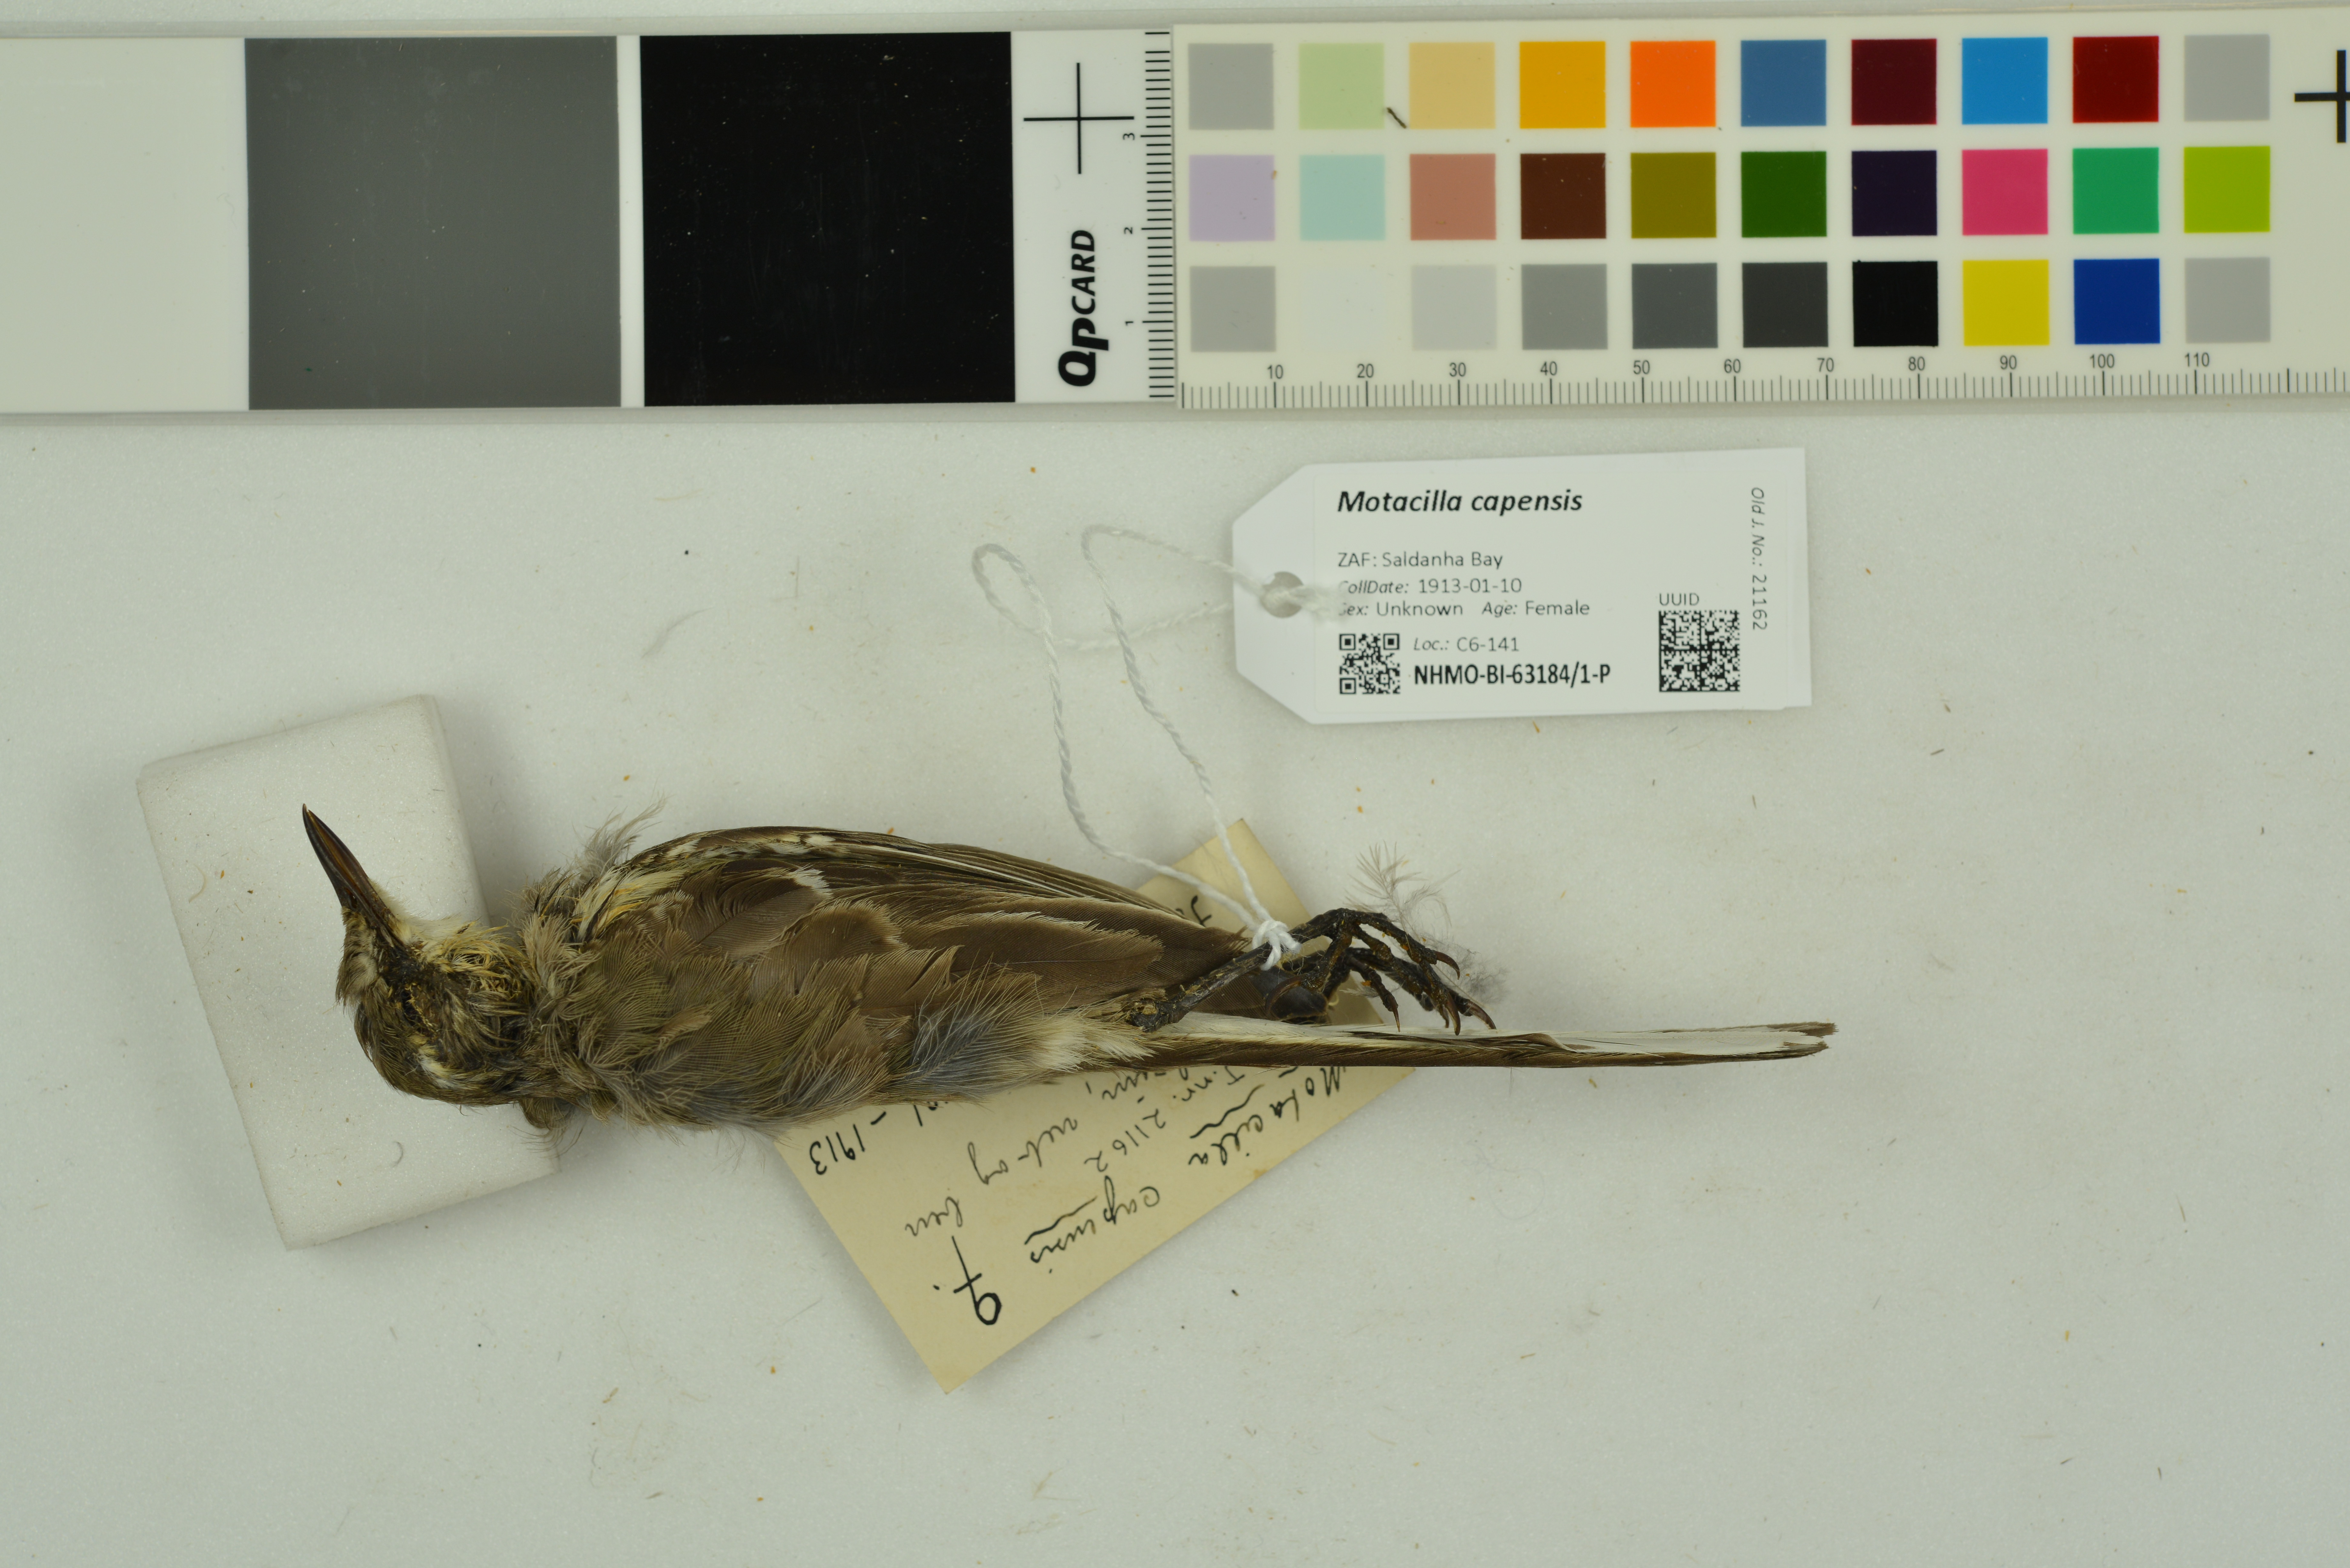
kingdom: Animalia
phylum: Chordata
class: Aves
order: Passeriformes
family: Motacillidae
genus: Motacilla
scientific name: Motacilla capensis
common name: Cape wagtail
